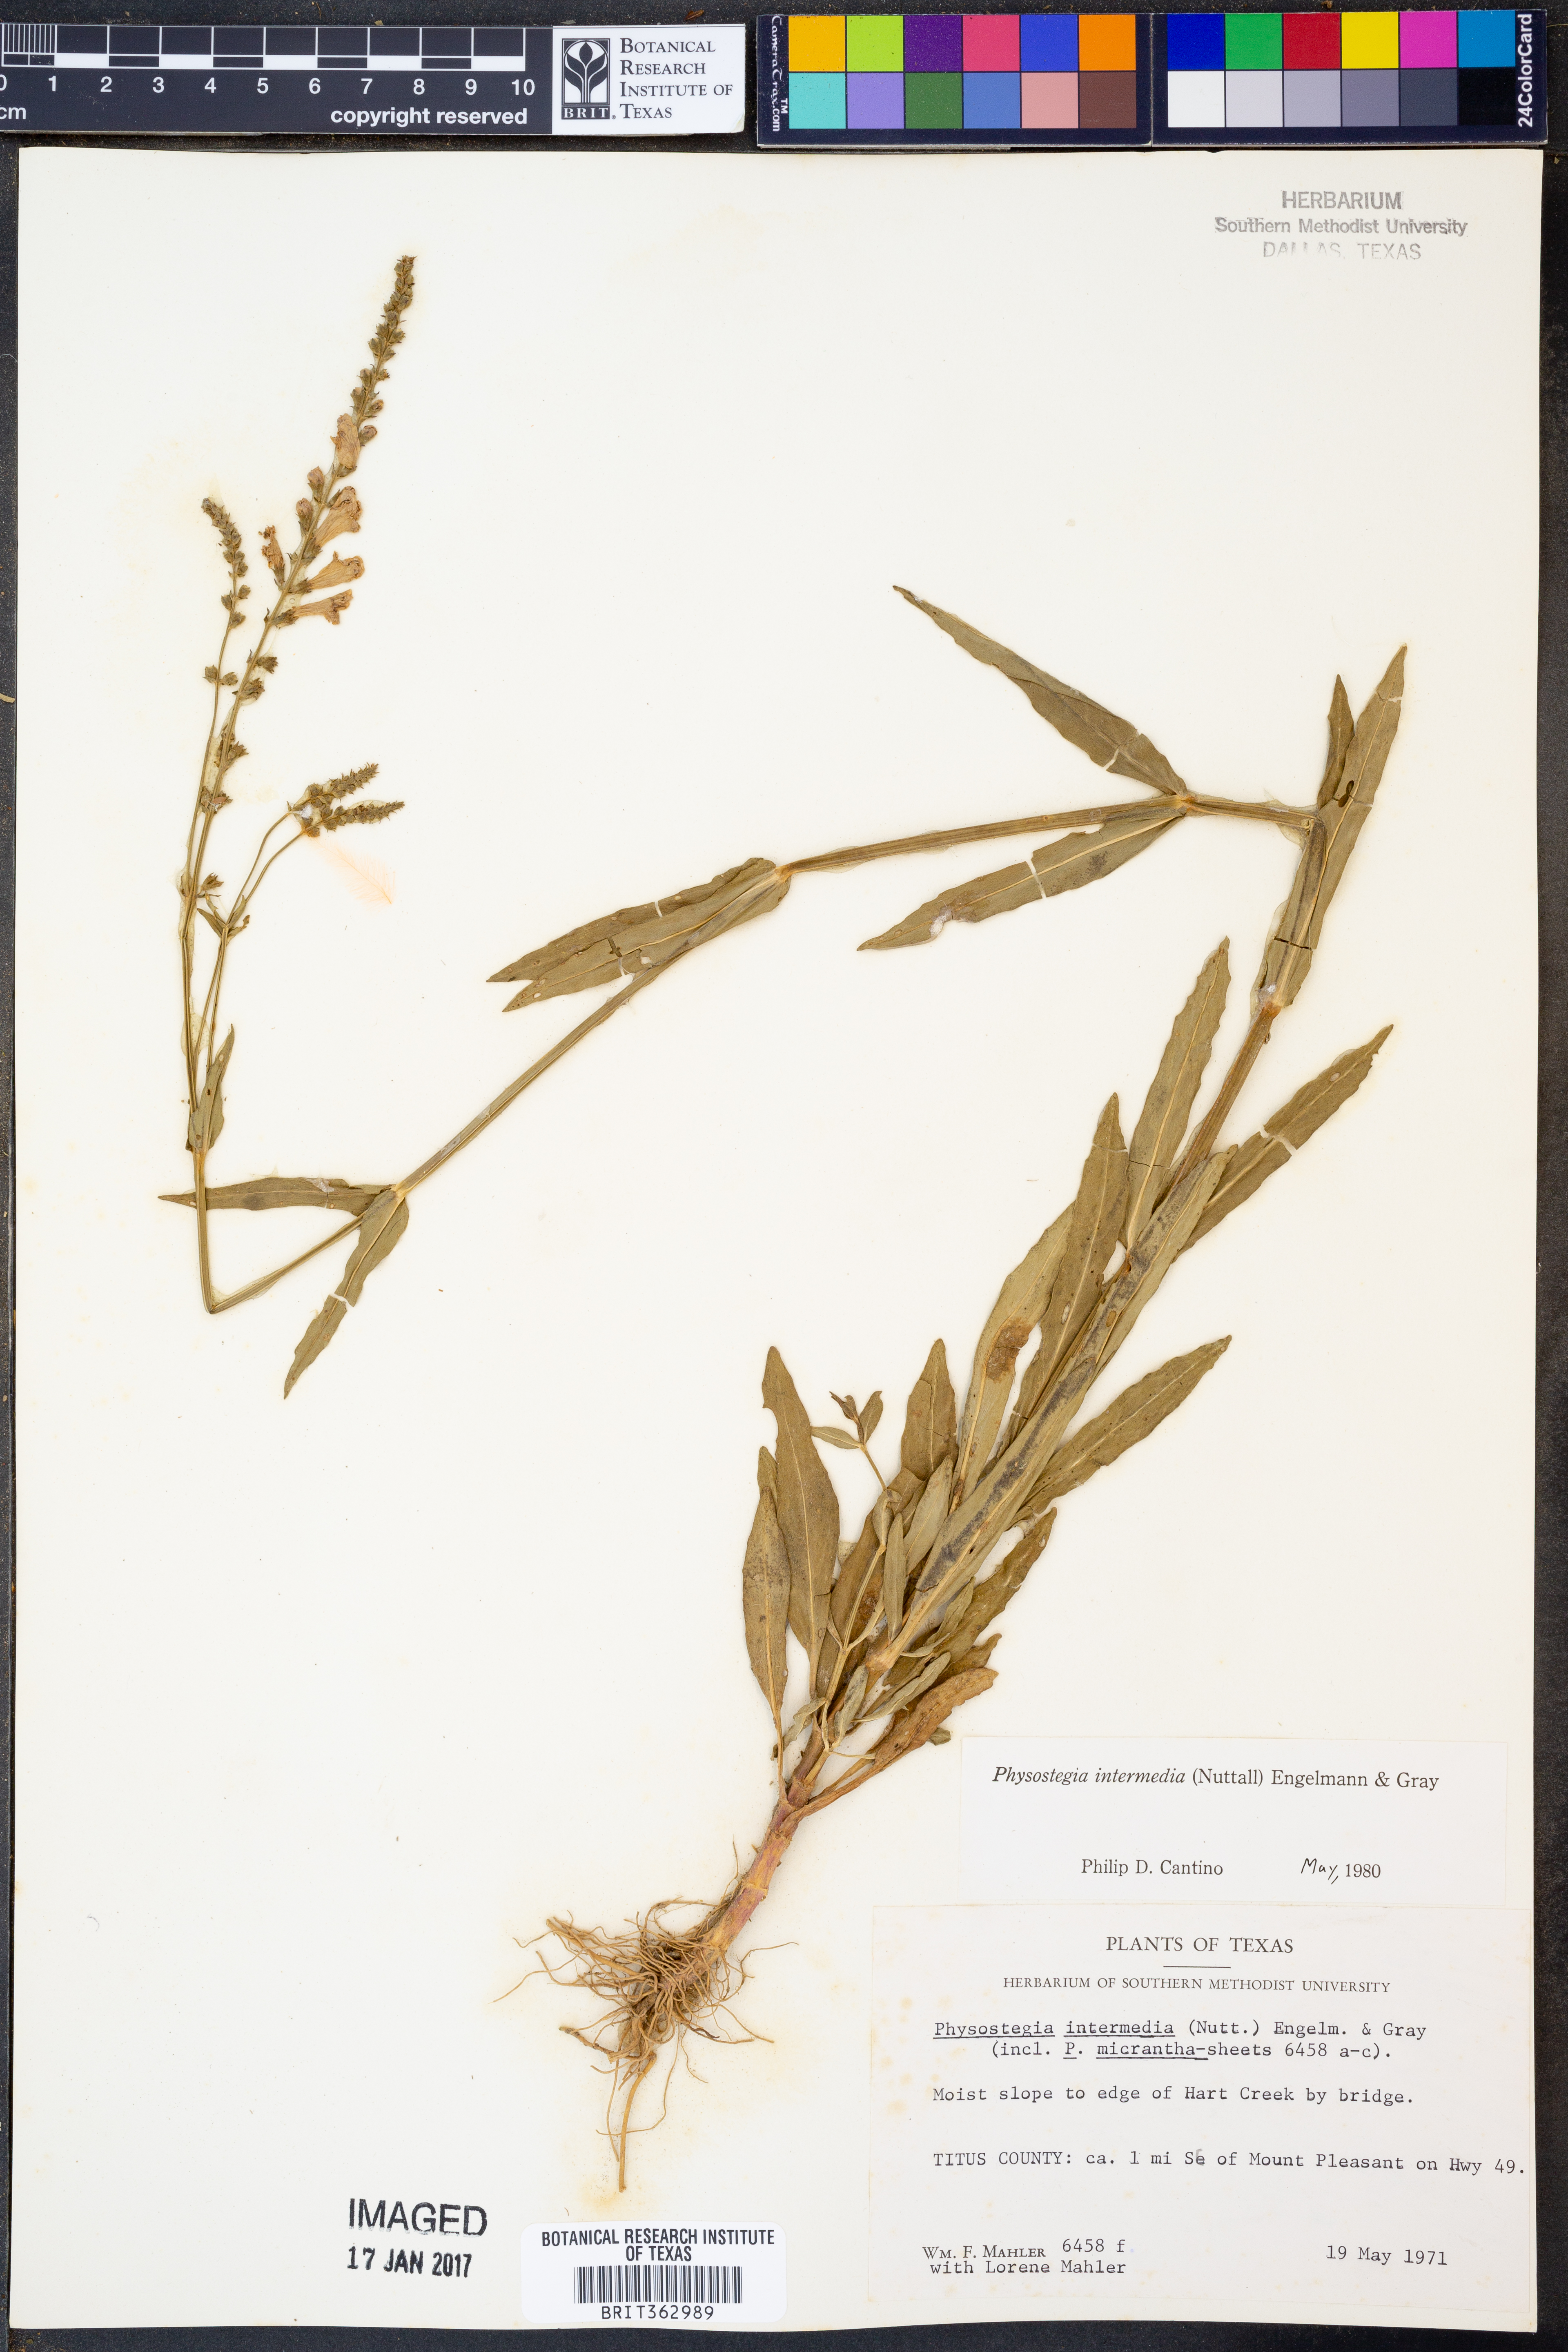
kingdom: Plantae
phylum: Tracheophyta
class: Magnoliopsida
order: Lamiales
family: Lamiaceae
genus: Physostegia
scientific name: Physostegia intermedia
